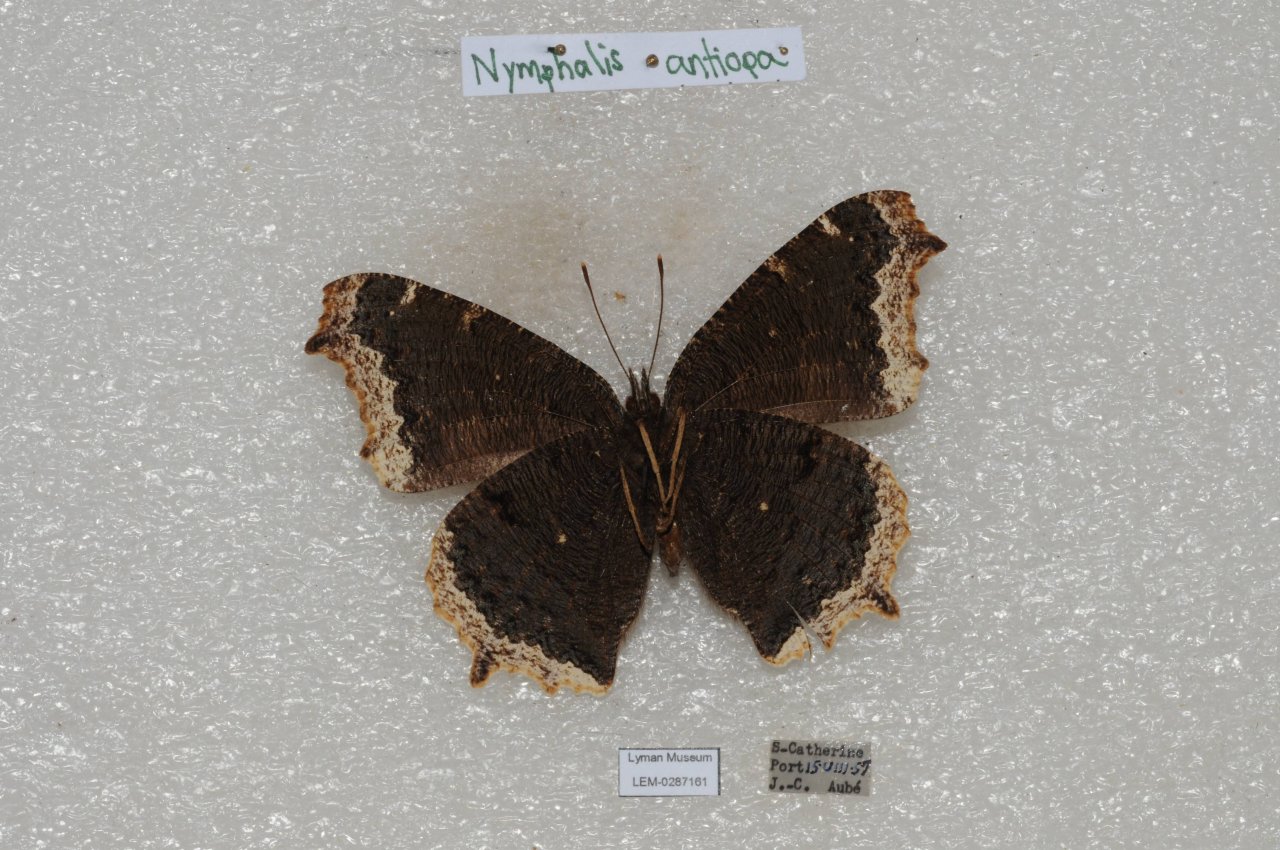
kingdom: Animalia
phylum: Arthropoda
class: Insecta
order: Lepidoptera
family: Nymphalidae
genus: Nymphalis
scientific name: Nymphalis antiopa
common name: Mourning Cloak
